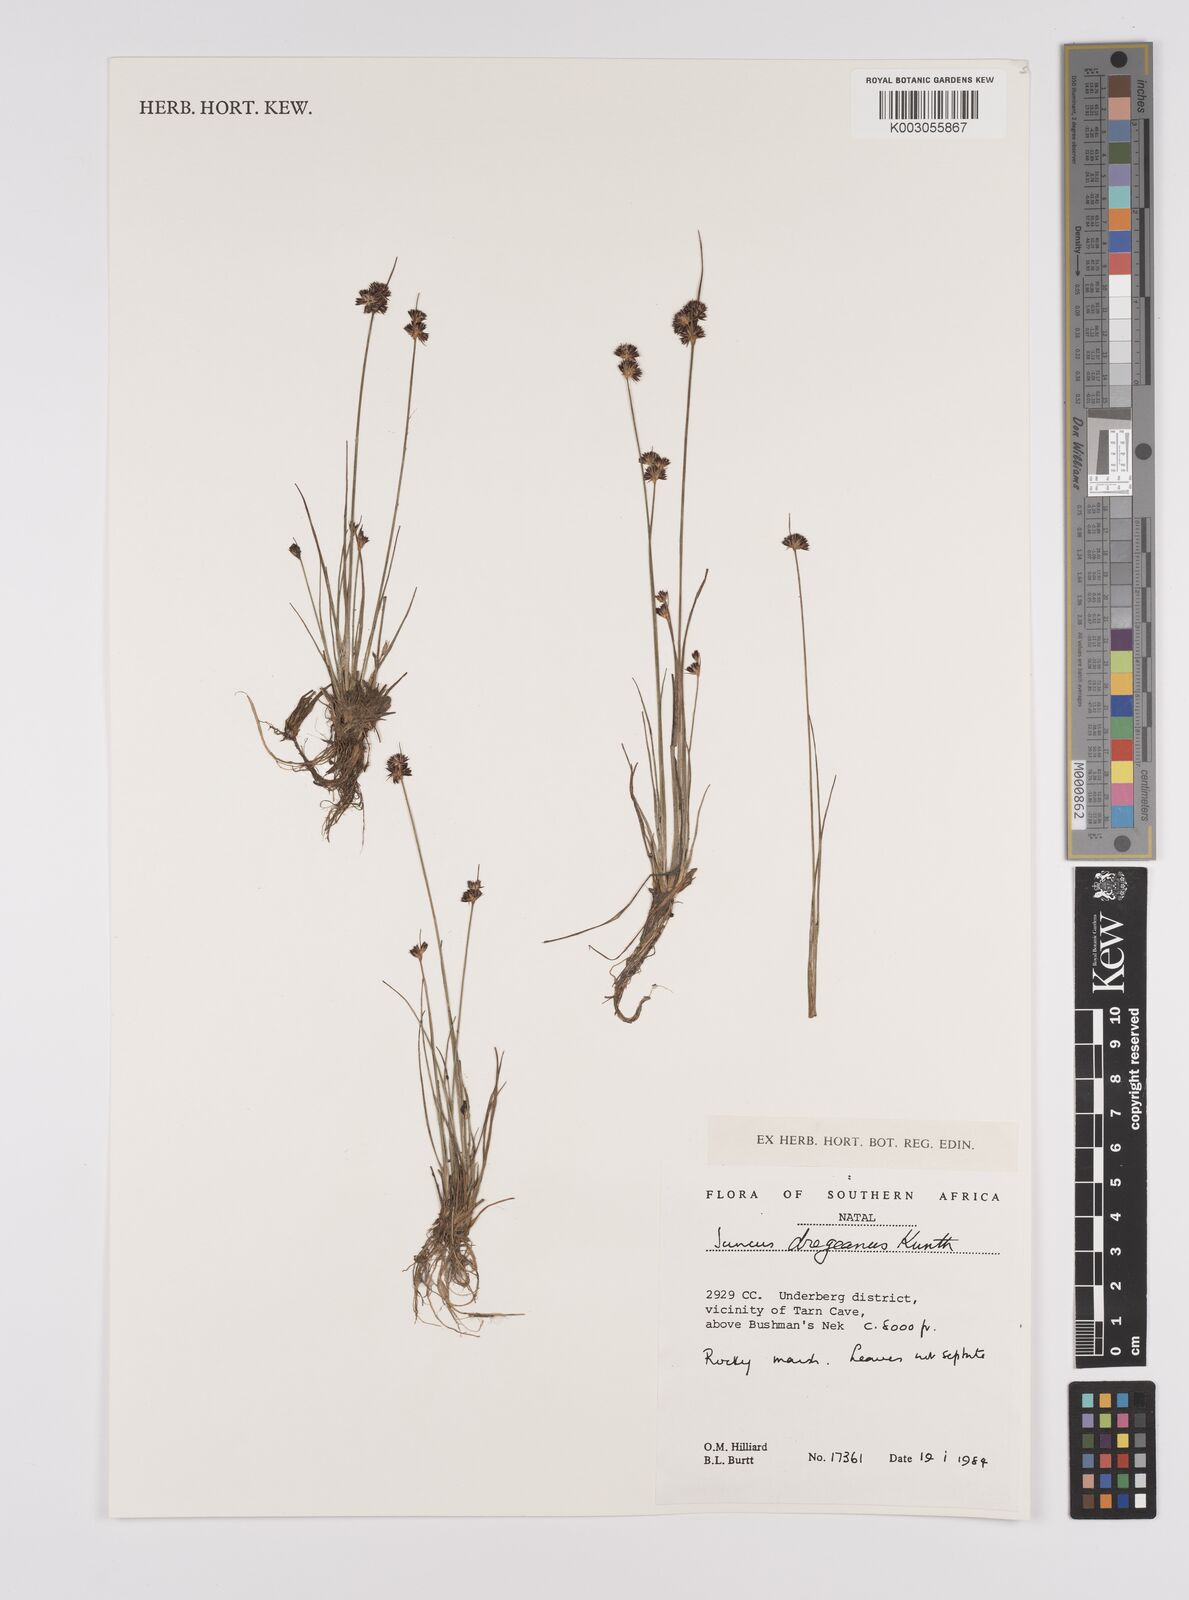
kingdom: Plantae
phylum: Tracheophyta
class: Liliopsida
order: Poales
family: Juncaceae
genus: Juncus
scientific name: Juncus dregeanus
